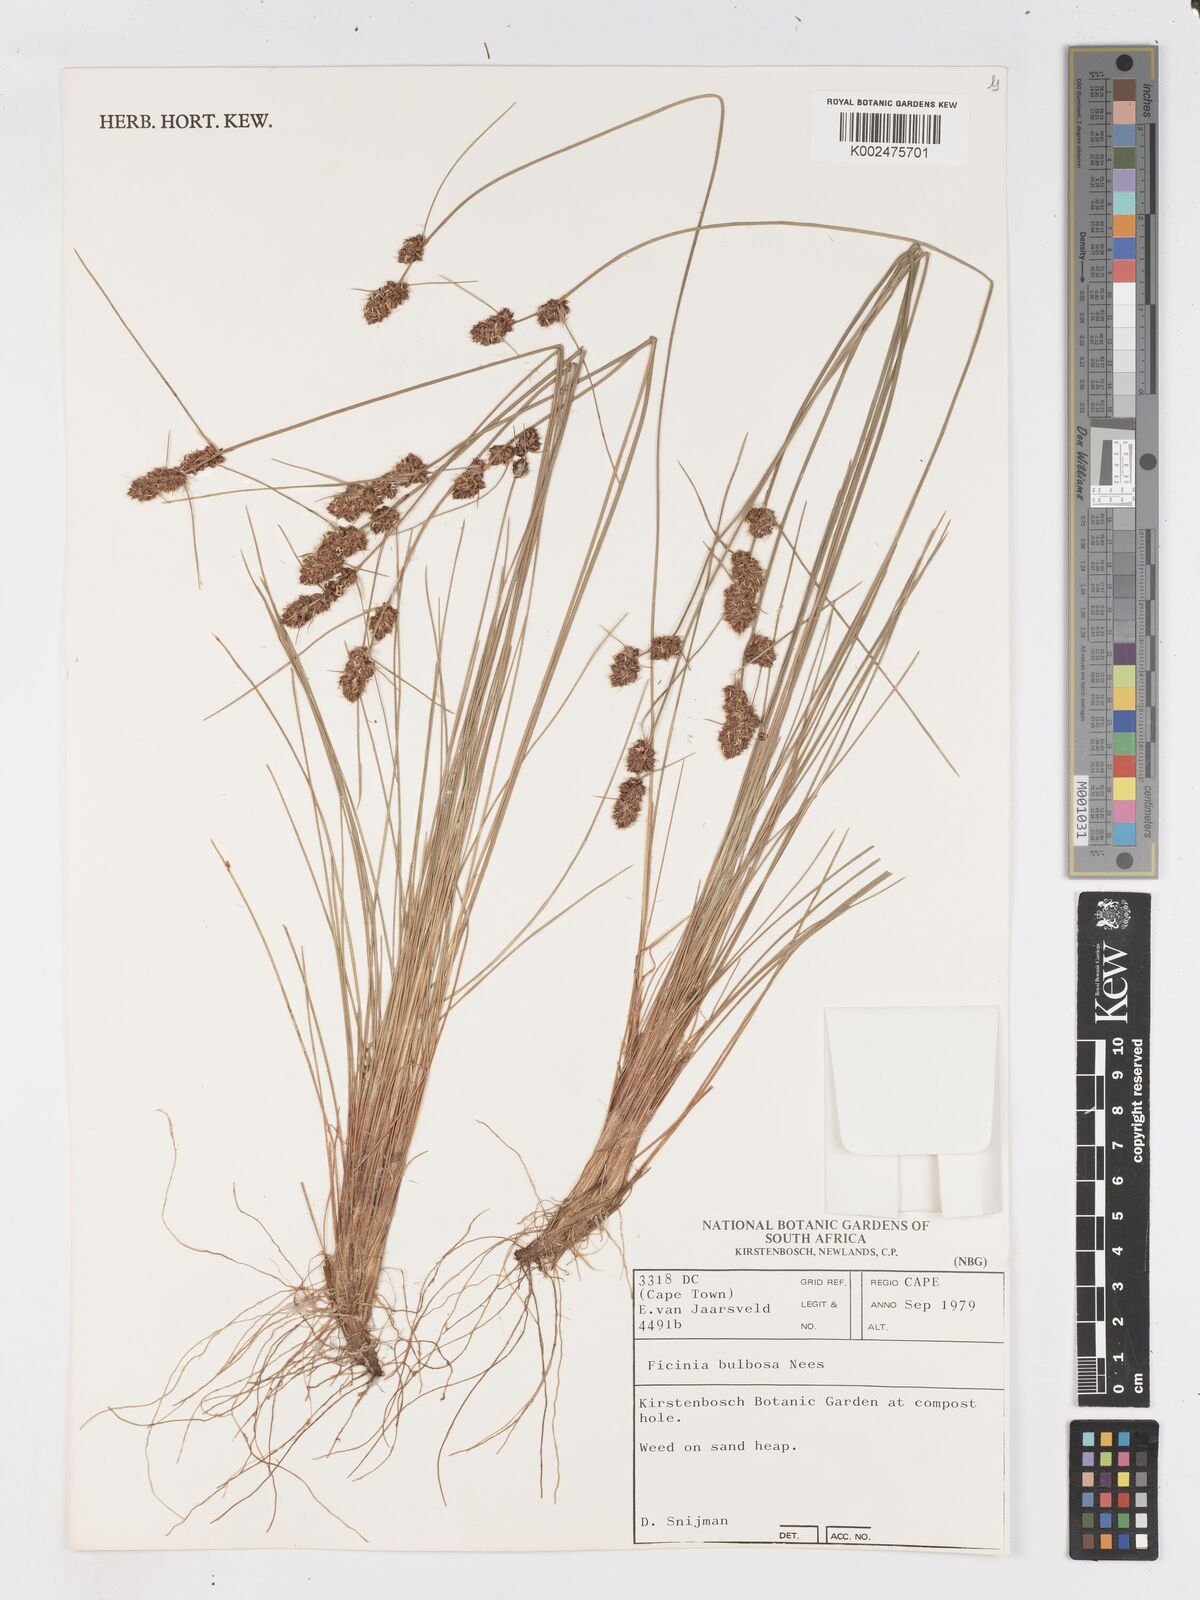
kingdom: Plantae
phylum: Tracheophyta
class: Liliopsida
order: Poales
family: Cyperaceae
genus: Ficinia
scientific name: Ficinia bulbosa
